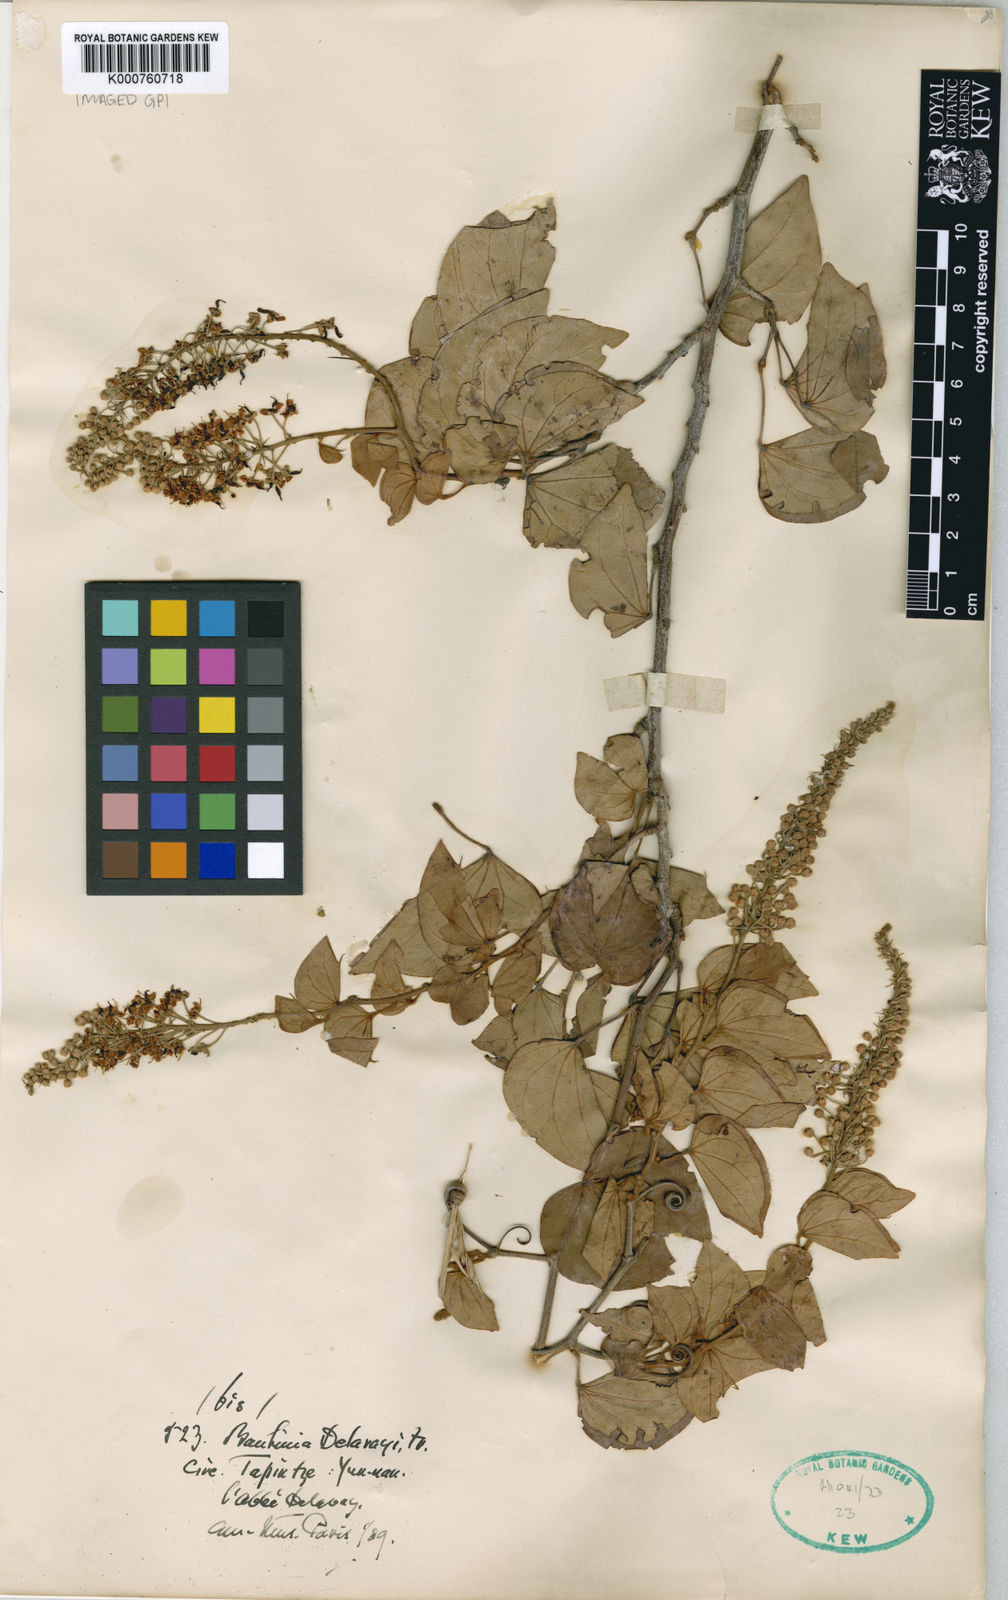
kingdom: Plantae
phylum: Tracheophyta
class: Magnoliopsida
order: Fabales
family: Fabaceae
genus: Phanera
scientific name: Phanera delavayi
